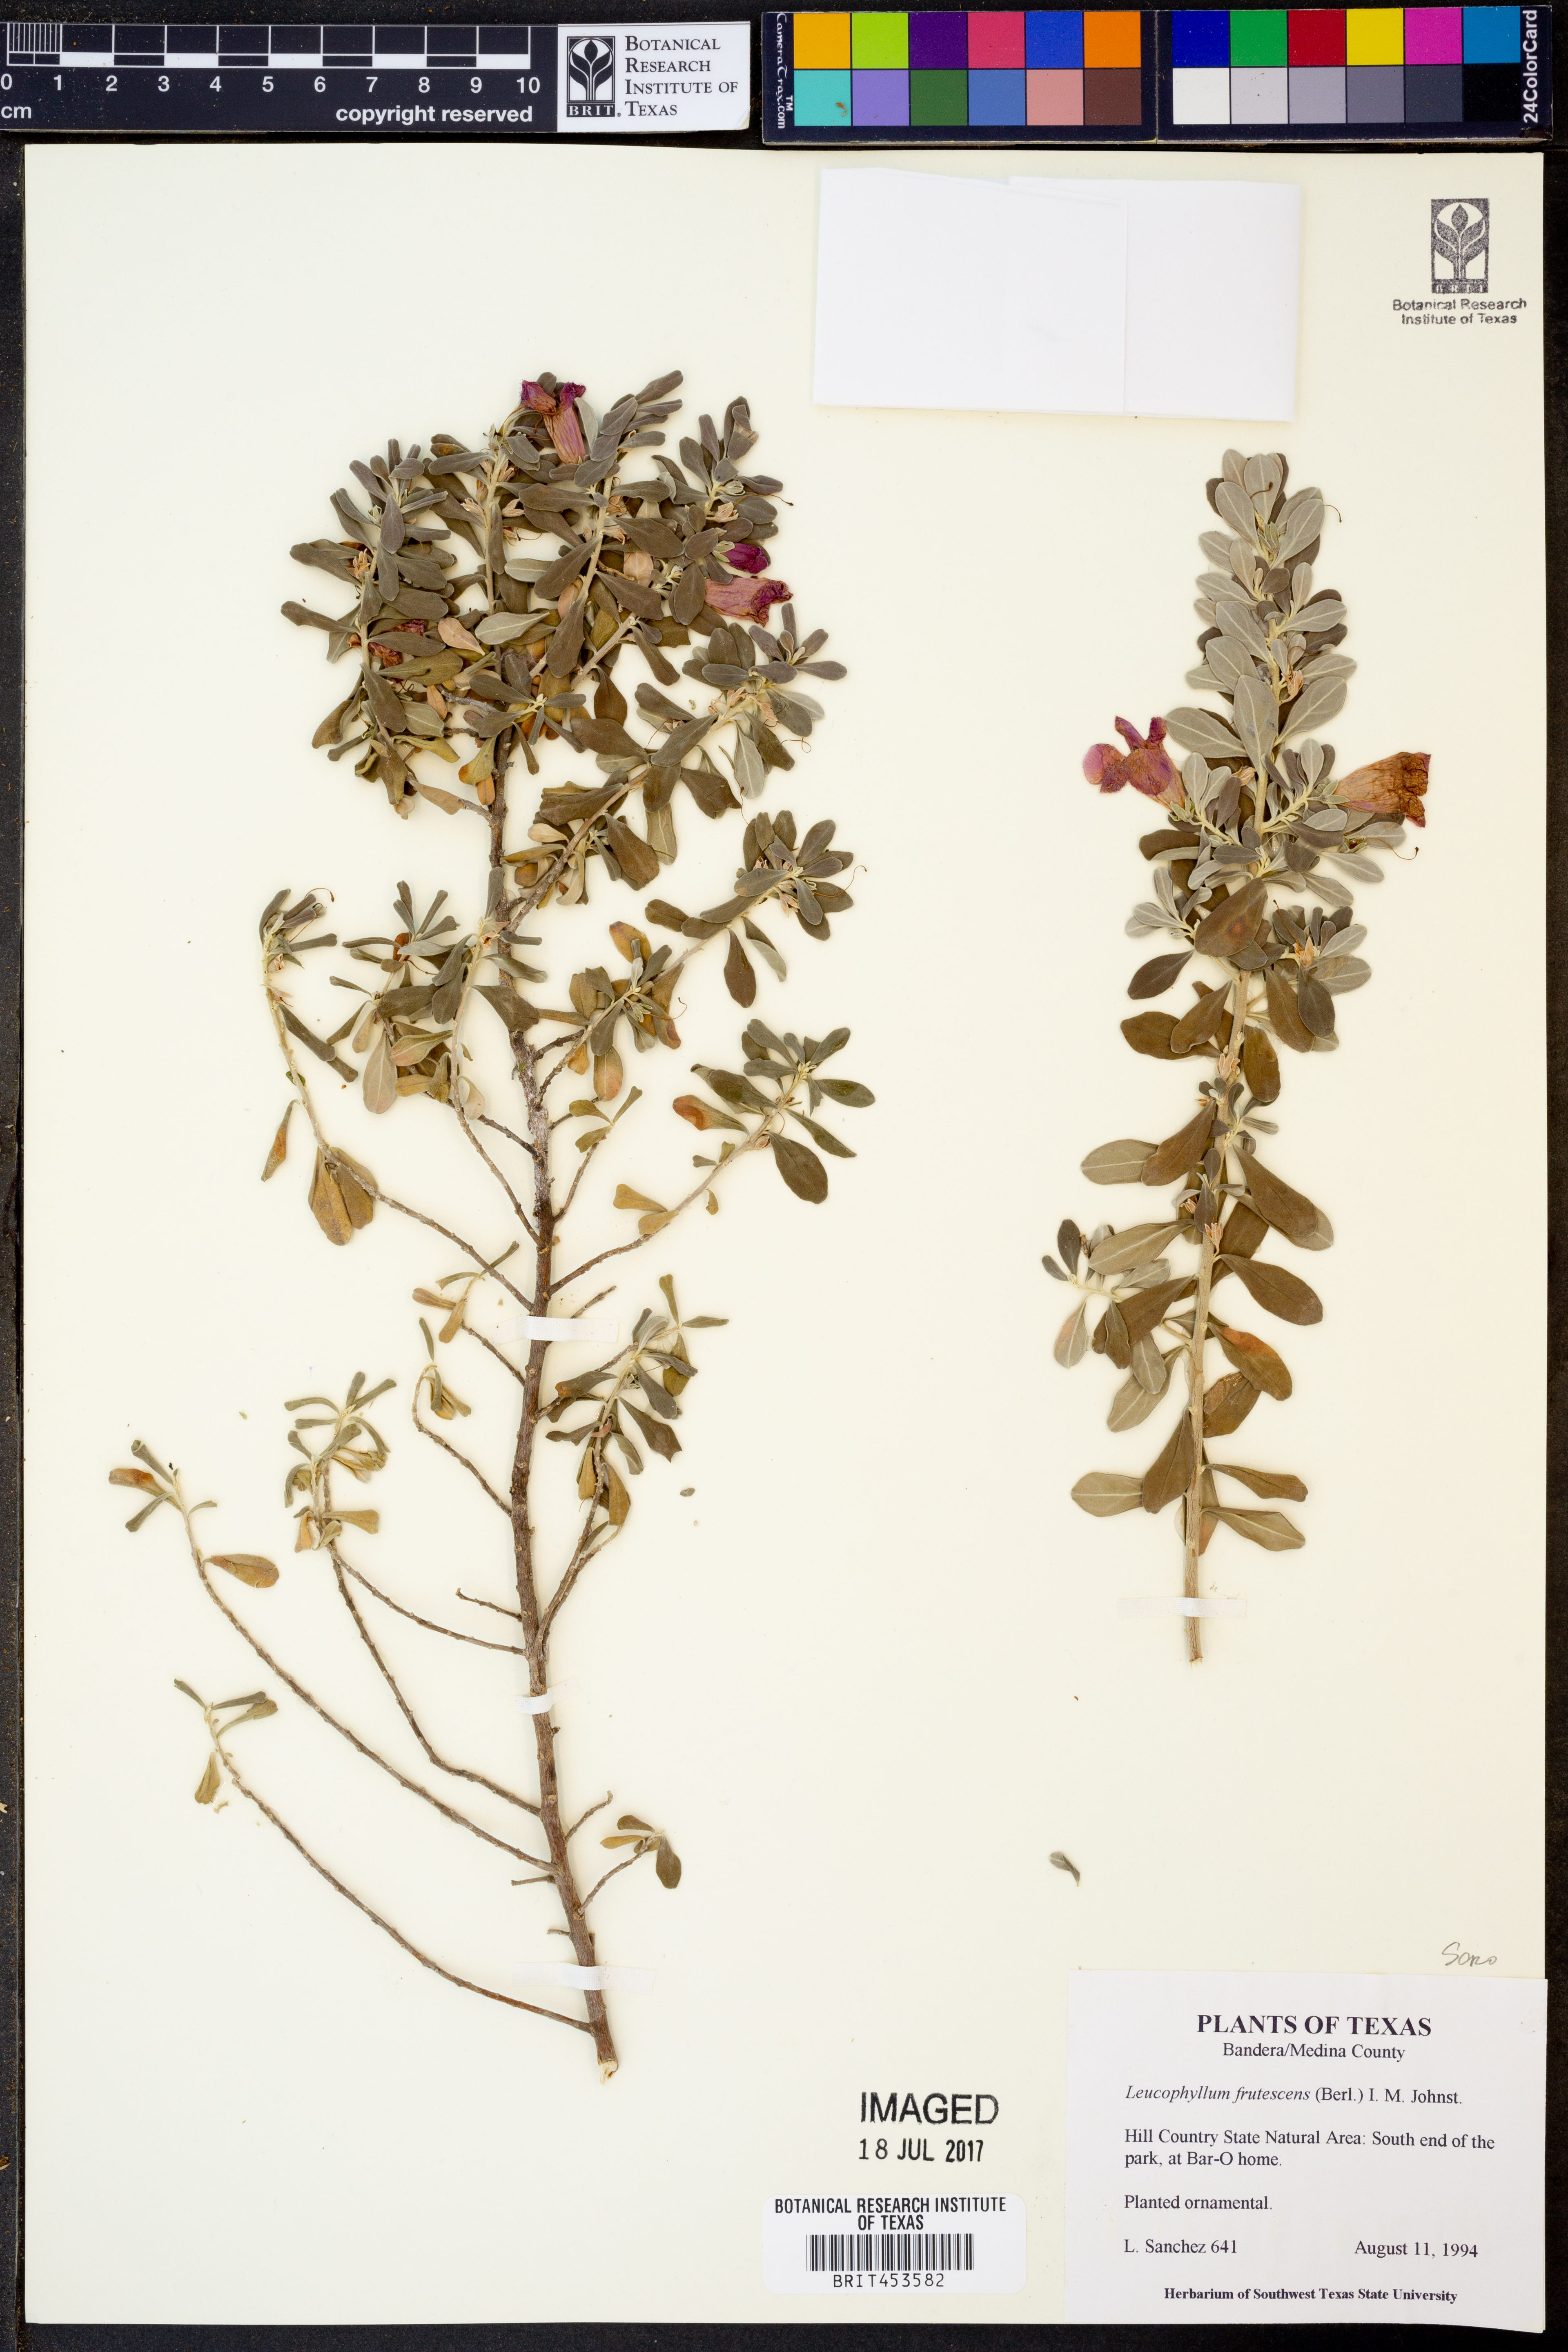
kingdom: Plantae
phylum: Tracheophyta
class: Magnoliopsida
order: Lamiales
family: Scrophulariaceae
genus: Leucophyllum
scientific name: Leucophyllum frutescens
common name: Texas silverleaf
